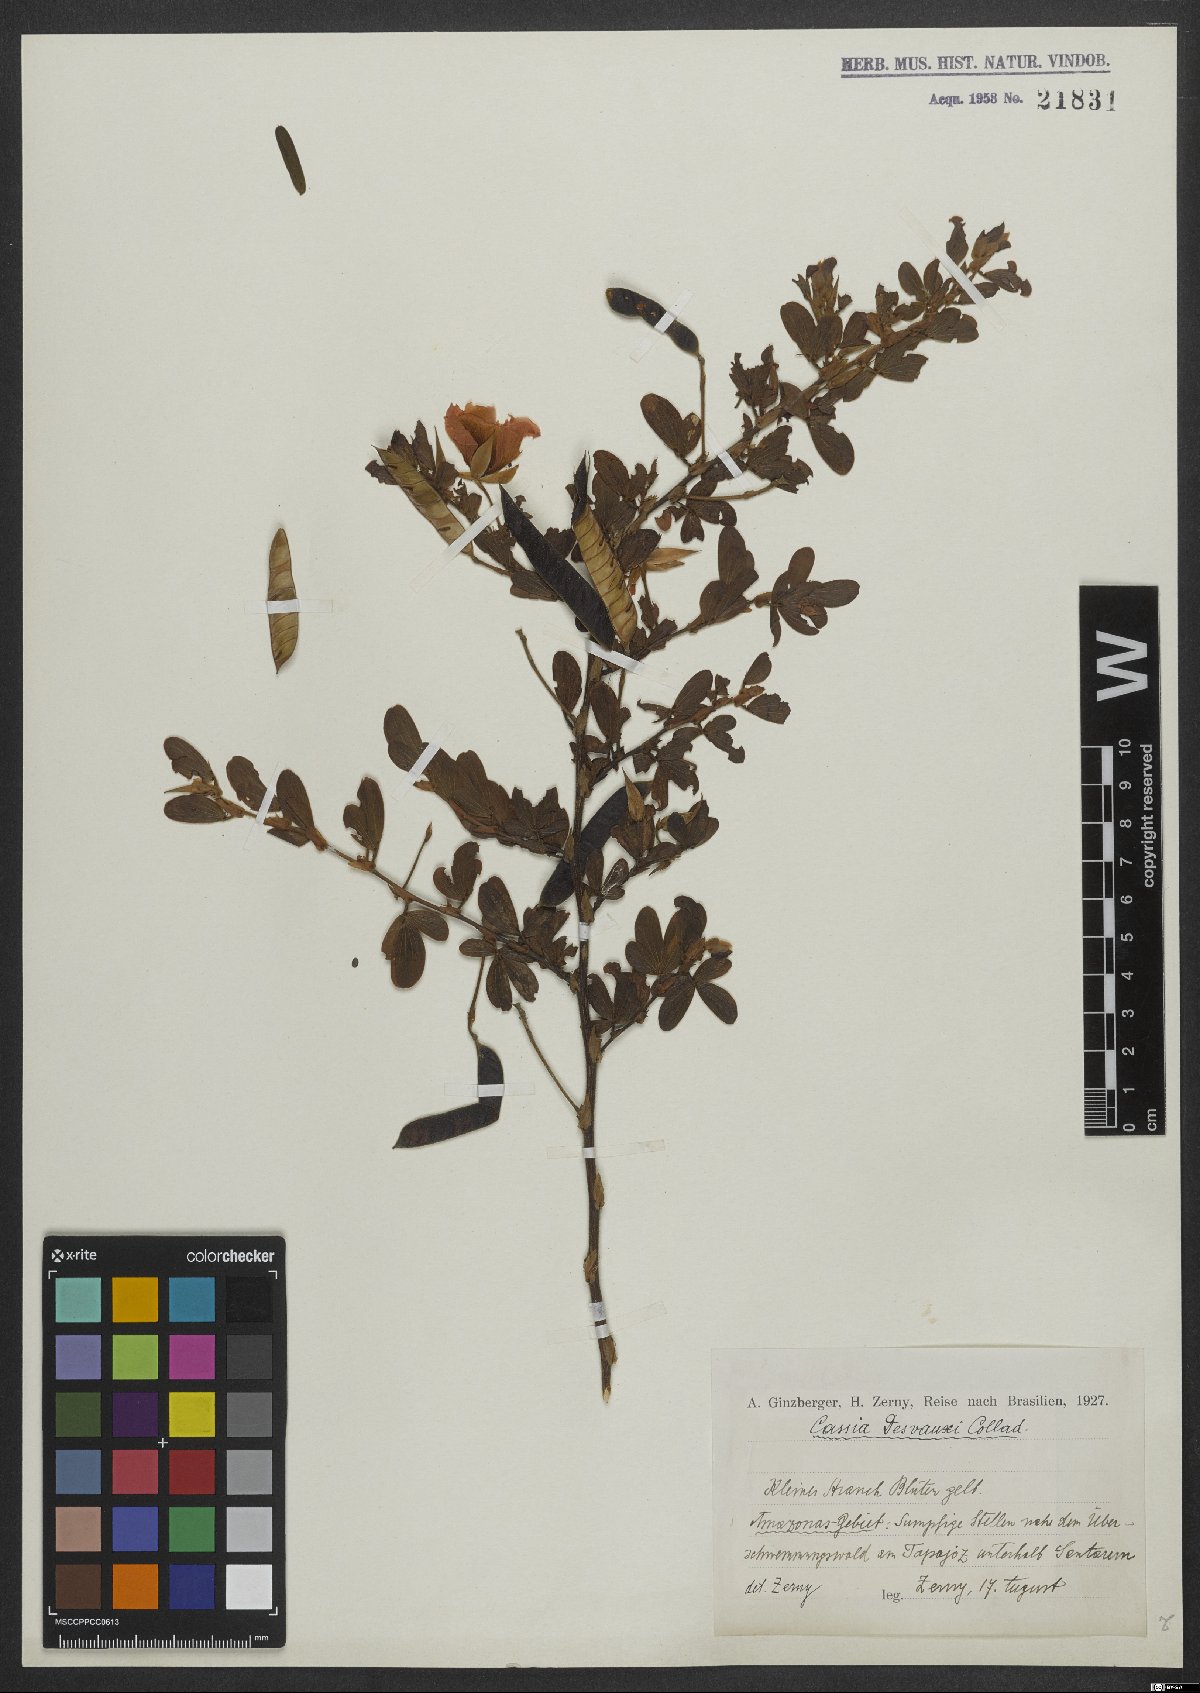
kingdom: Plantae
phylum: Tracheophyta
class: Magnoliopsida
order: Fabales
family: Fabaceae
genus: Chamaecrista
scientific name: Chamaecrista desvauxii
